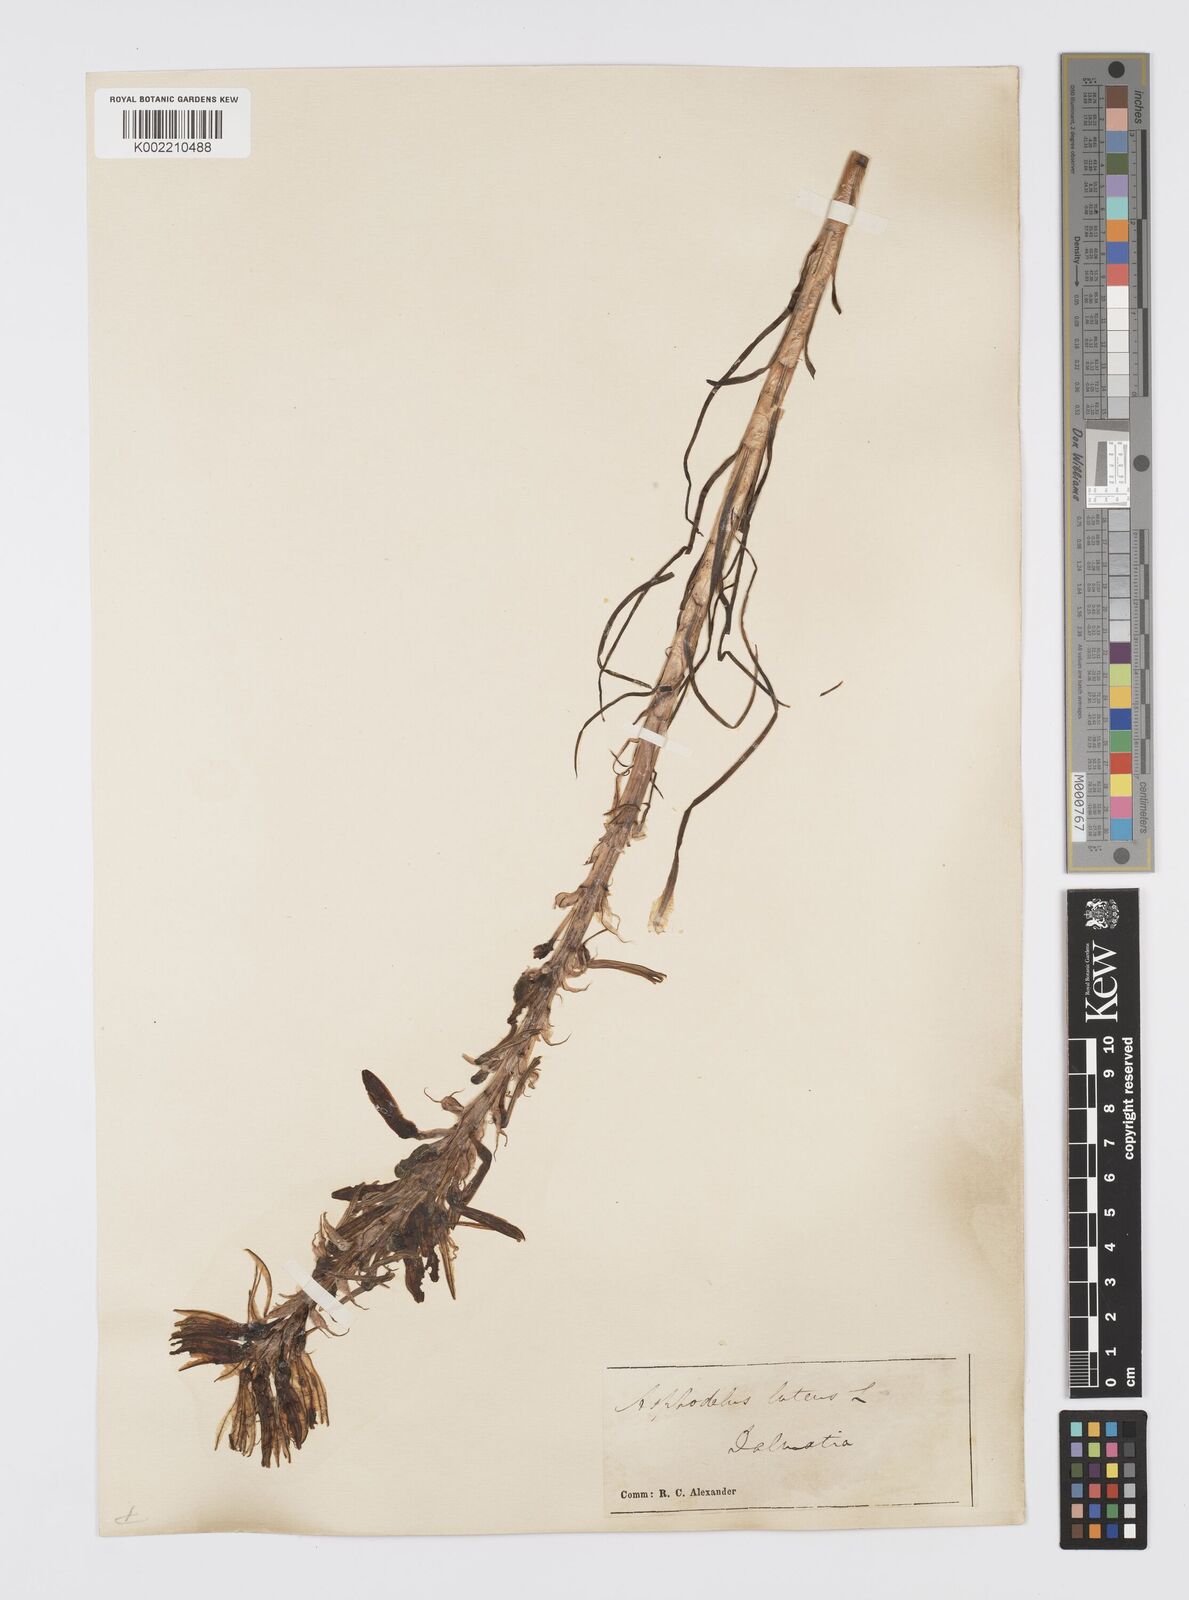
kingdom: Plantae
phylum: Tracheophyta
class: Liliopsida
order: Asparagales
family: Asphodelaceae
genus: Asphodeline
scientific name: Asphodeline lutea
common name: Yellow asphodel
